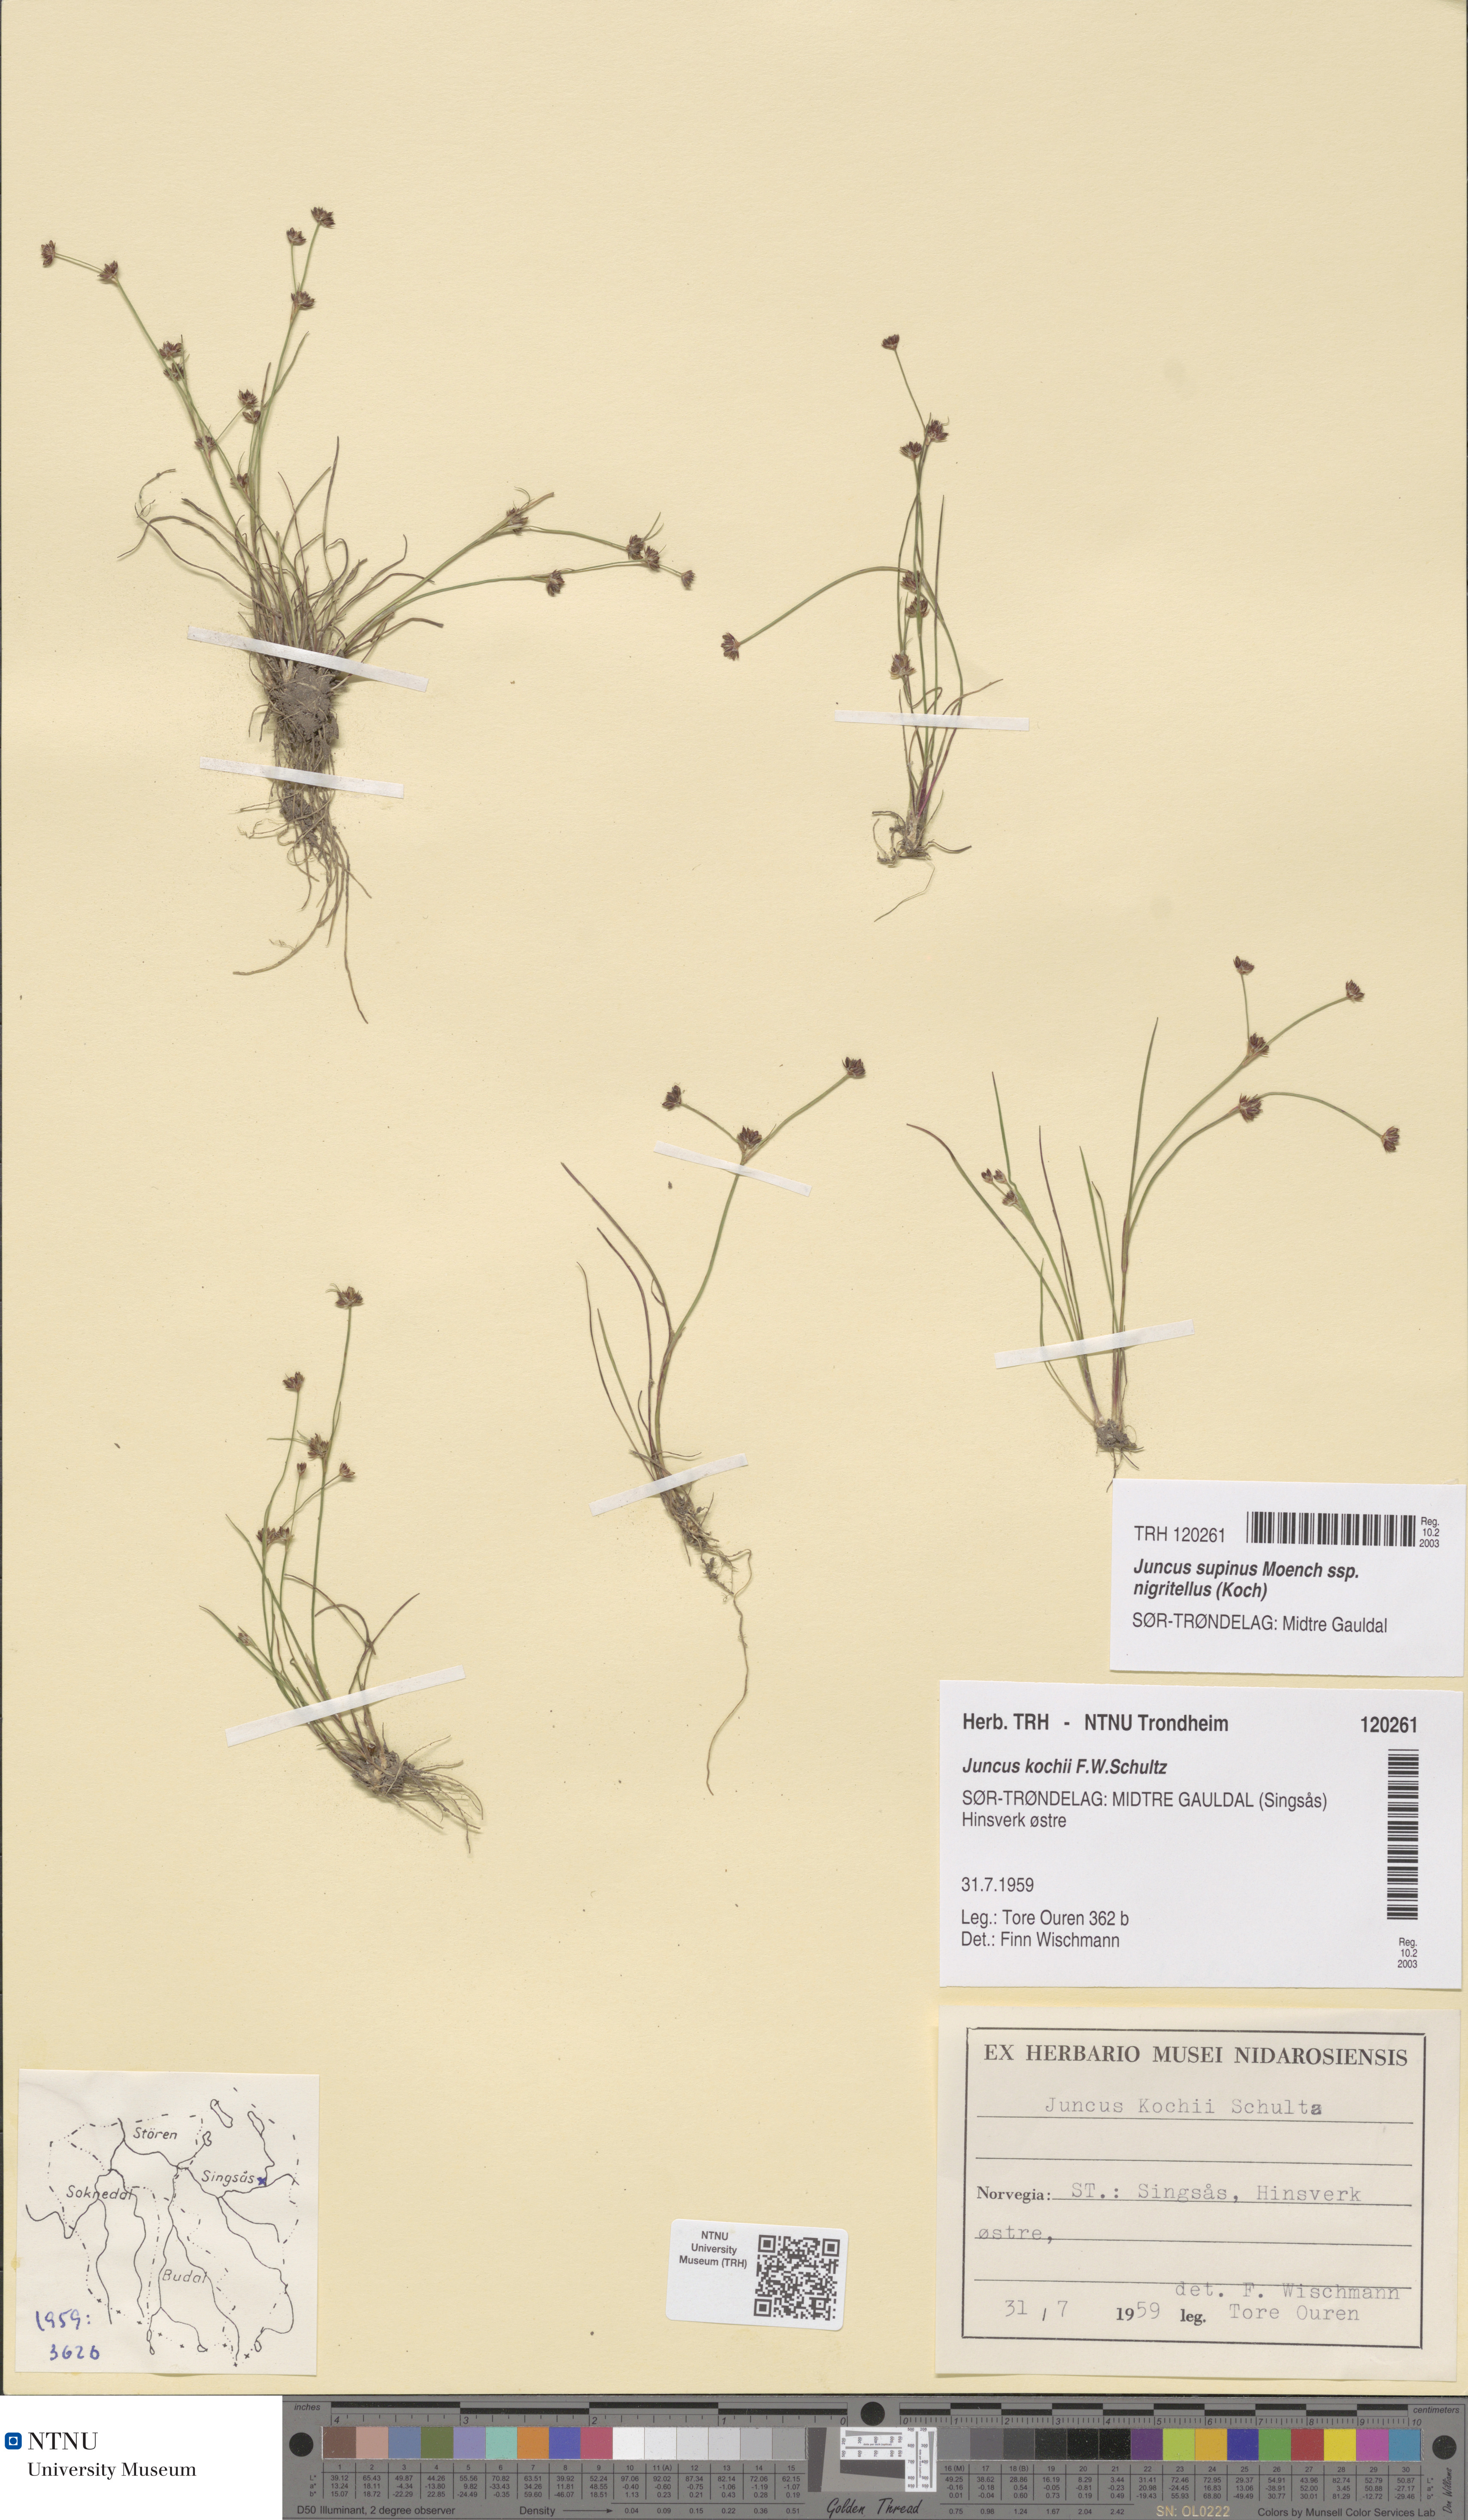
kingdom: Plantae
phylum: Tracheophyta
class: Liliopsida
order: Poales
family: Juncaceae
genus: Juncus
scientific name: Juncus bulbosus
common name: Bulbous rush
